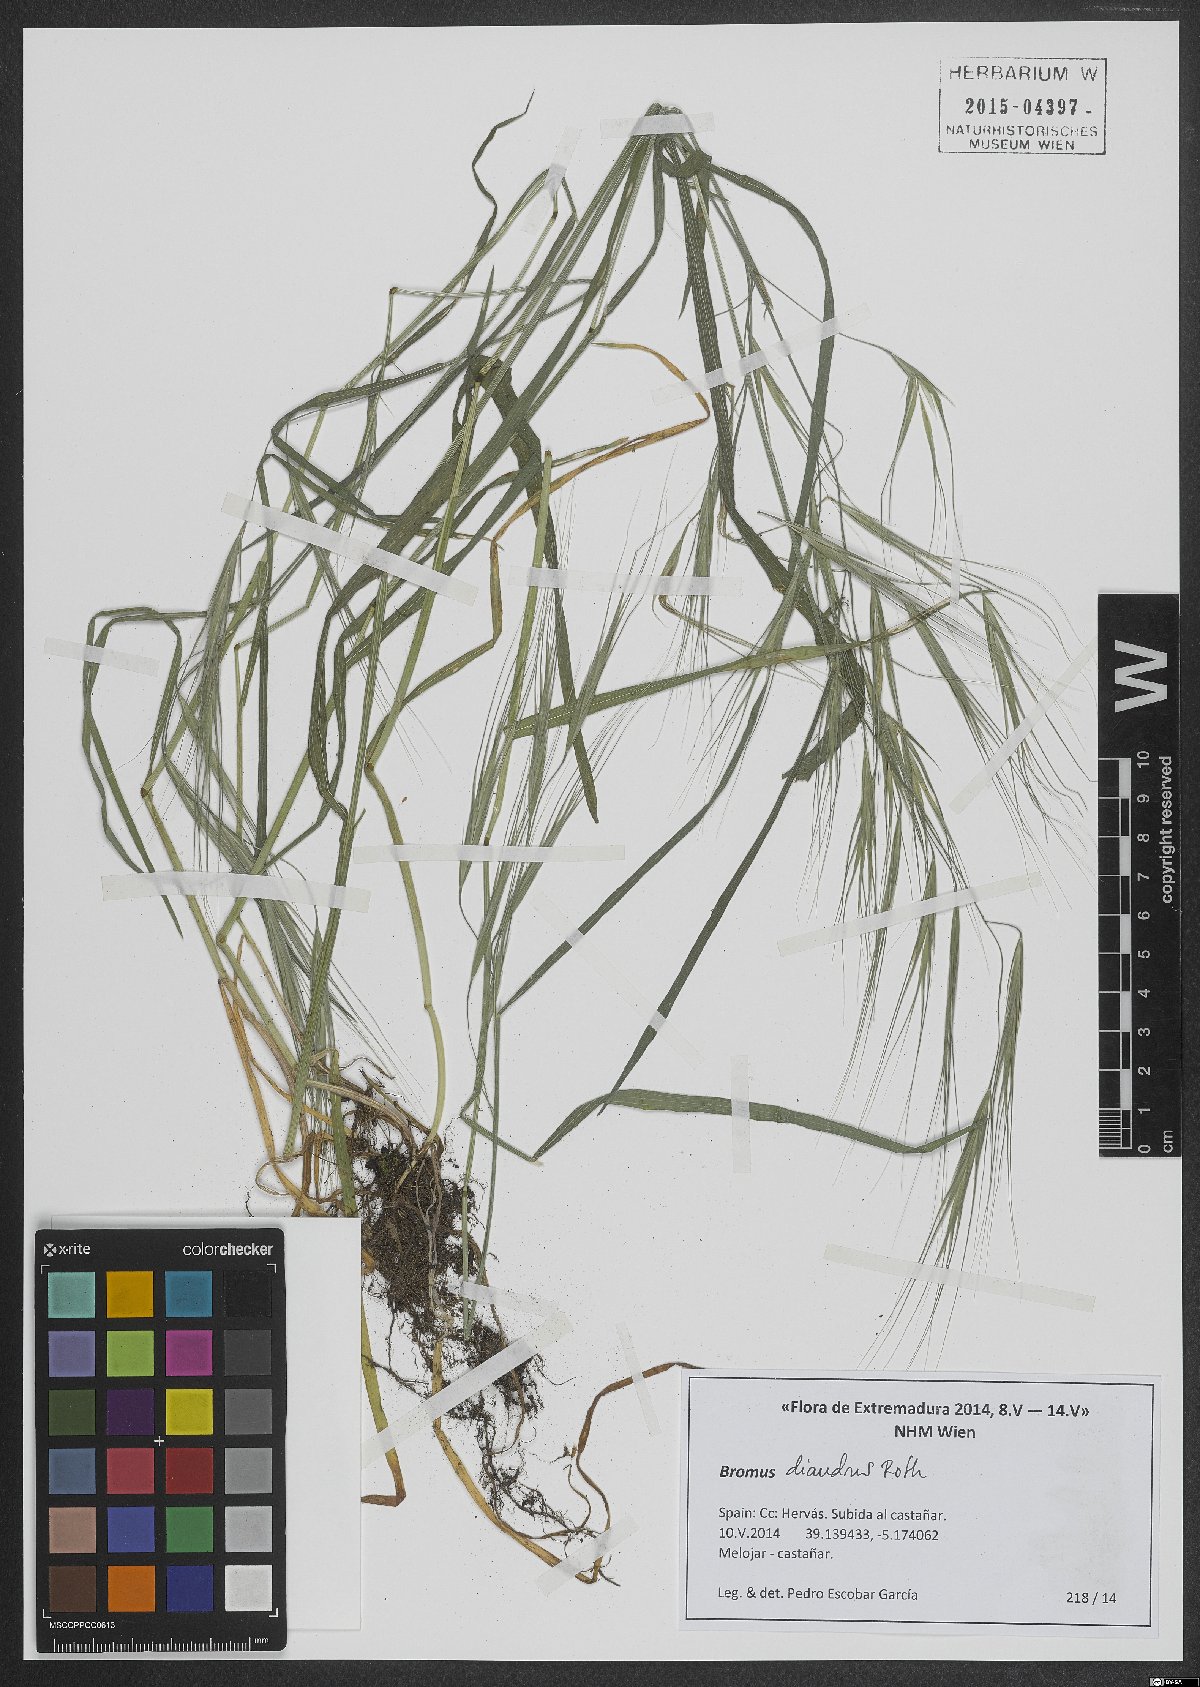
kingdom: Plantae
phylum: Tracheophyta
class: Liliopsida
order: Poales
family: Poaceae
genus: Bromus
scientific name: Bromus diandrus
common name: Ripgut brome
